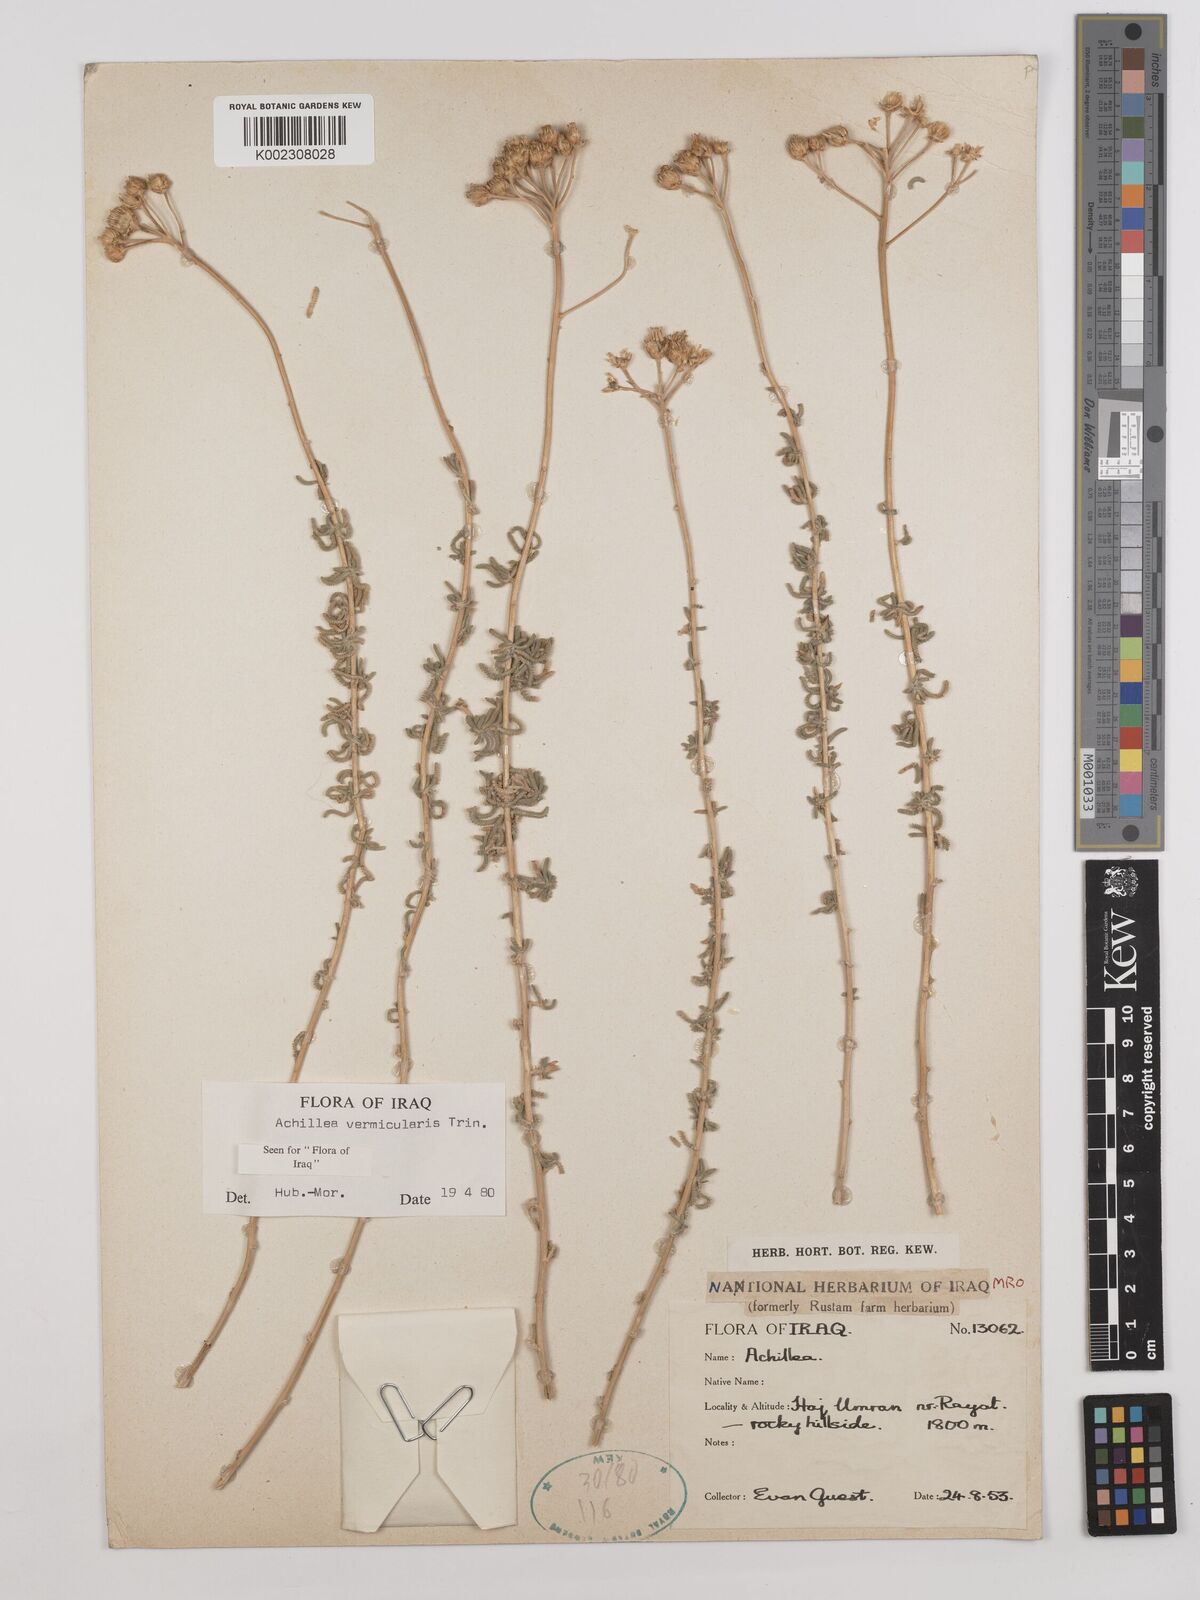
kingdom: Plantae
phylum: Tracheophyta
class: Magnoliopsida
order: Asterales
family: Asteraceae
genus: Achillea
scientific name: Achillea vermicularis
